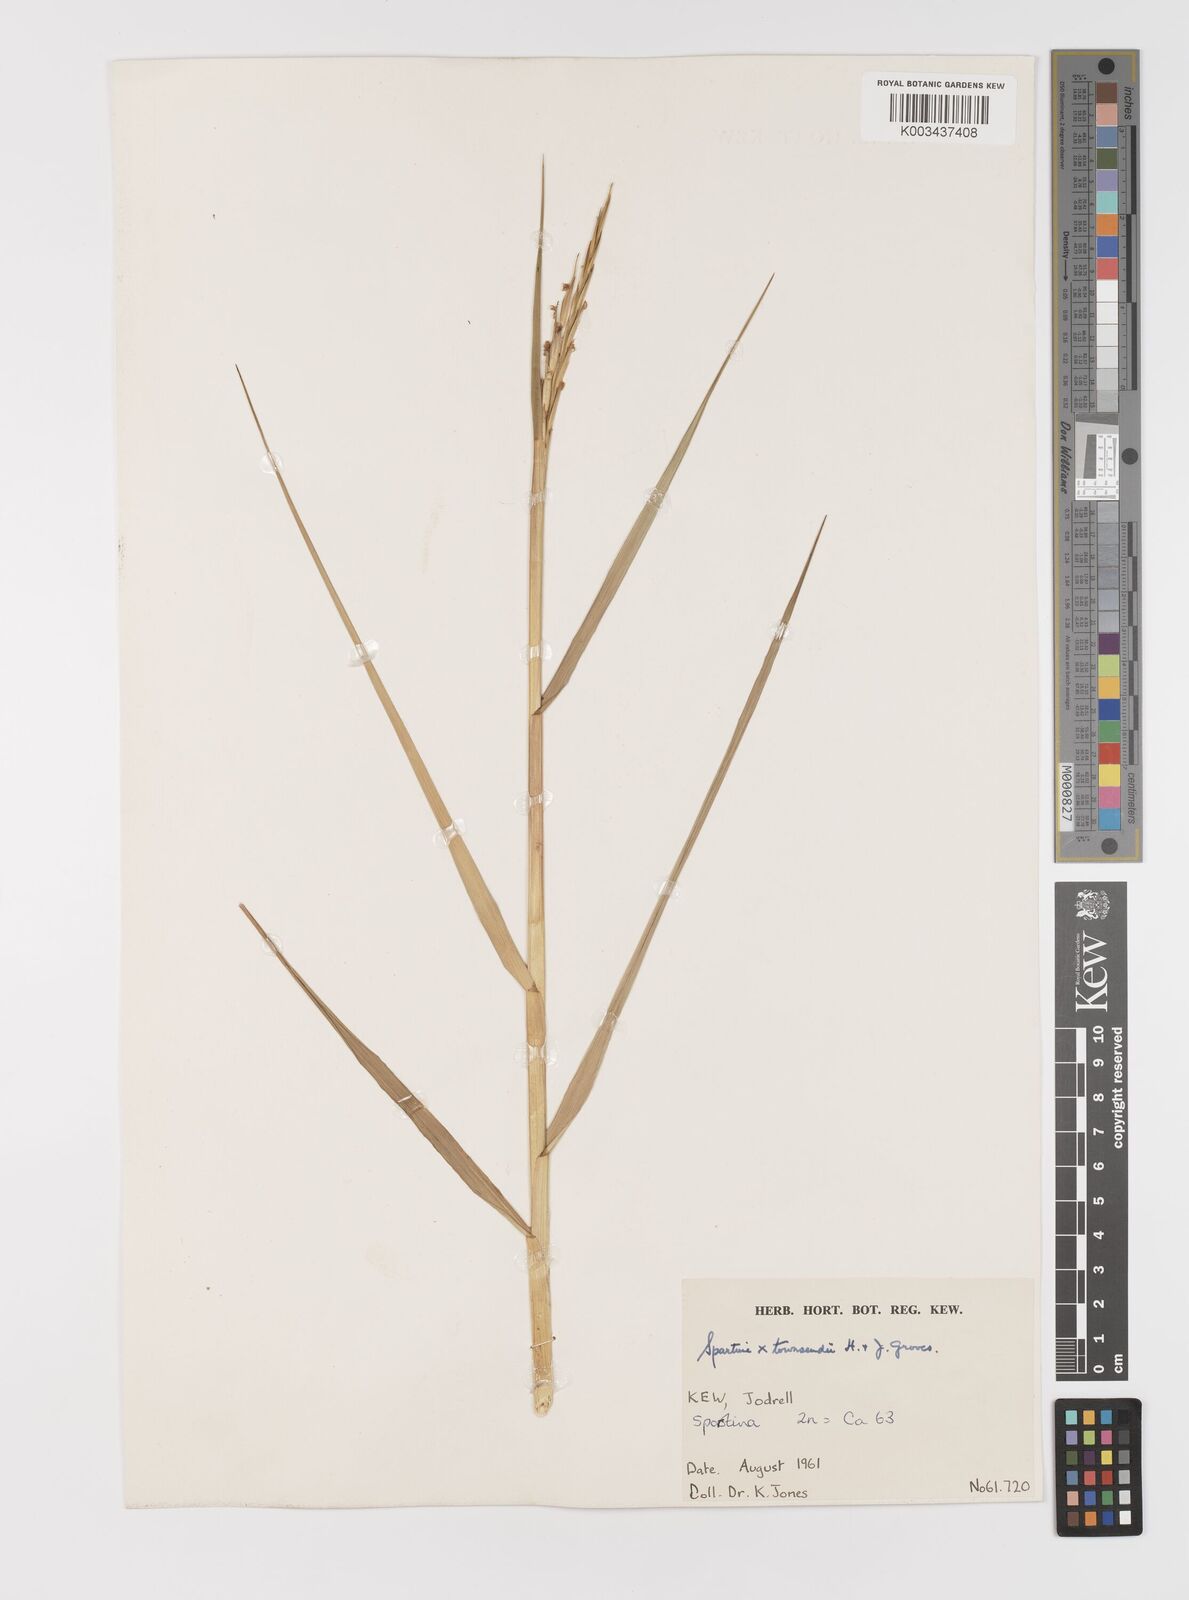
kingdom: Plantae
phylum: Tracheophyta
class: Liliopsida
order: Poales
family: Poaceae
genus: Sporobolus
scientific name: Sporobolus townsendii
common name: Townsend's cordgrass
